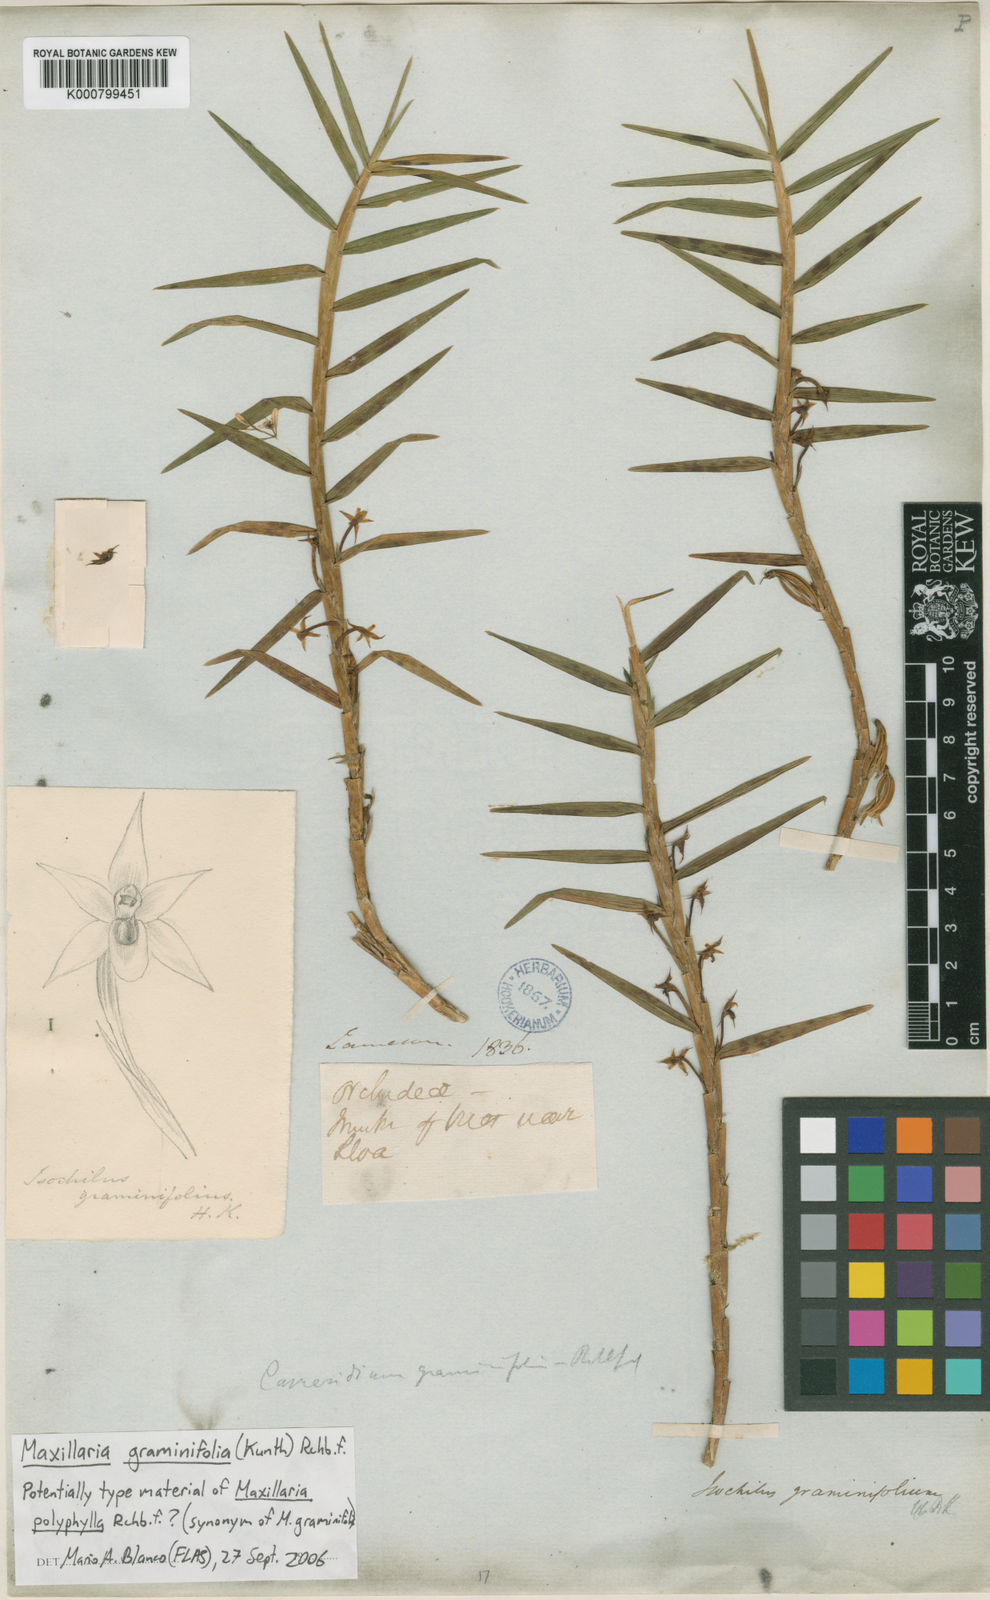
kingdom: Plantae
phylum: Tracheophyta
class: Liliopsida
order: Asparagales
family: Orchidaceae
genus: Maxillaria
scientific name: Maxillaria graminifolia
